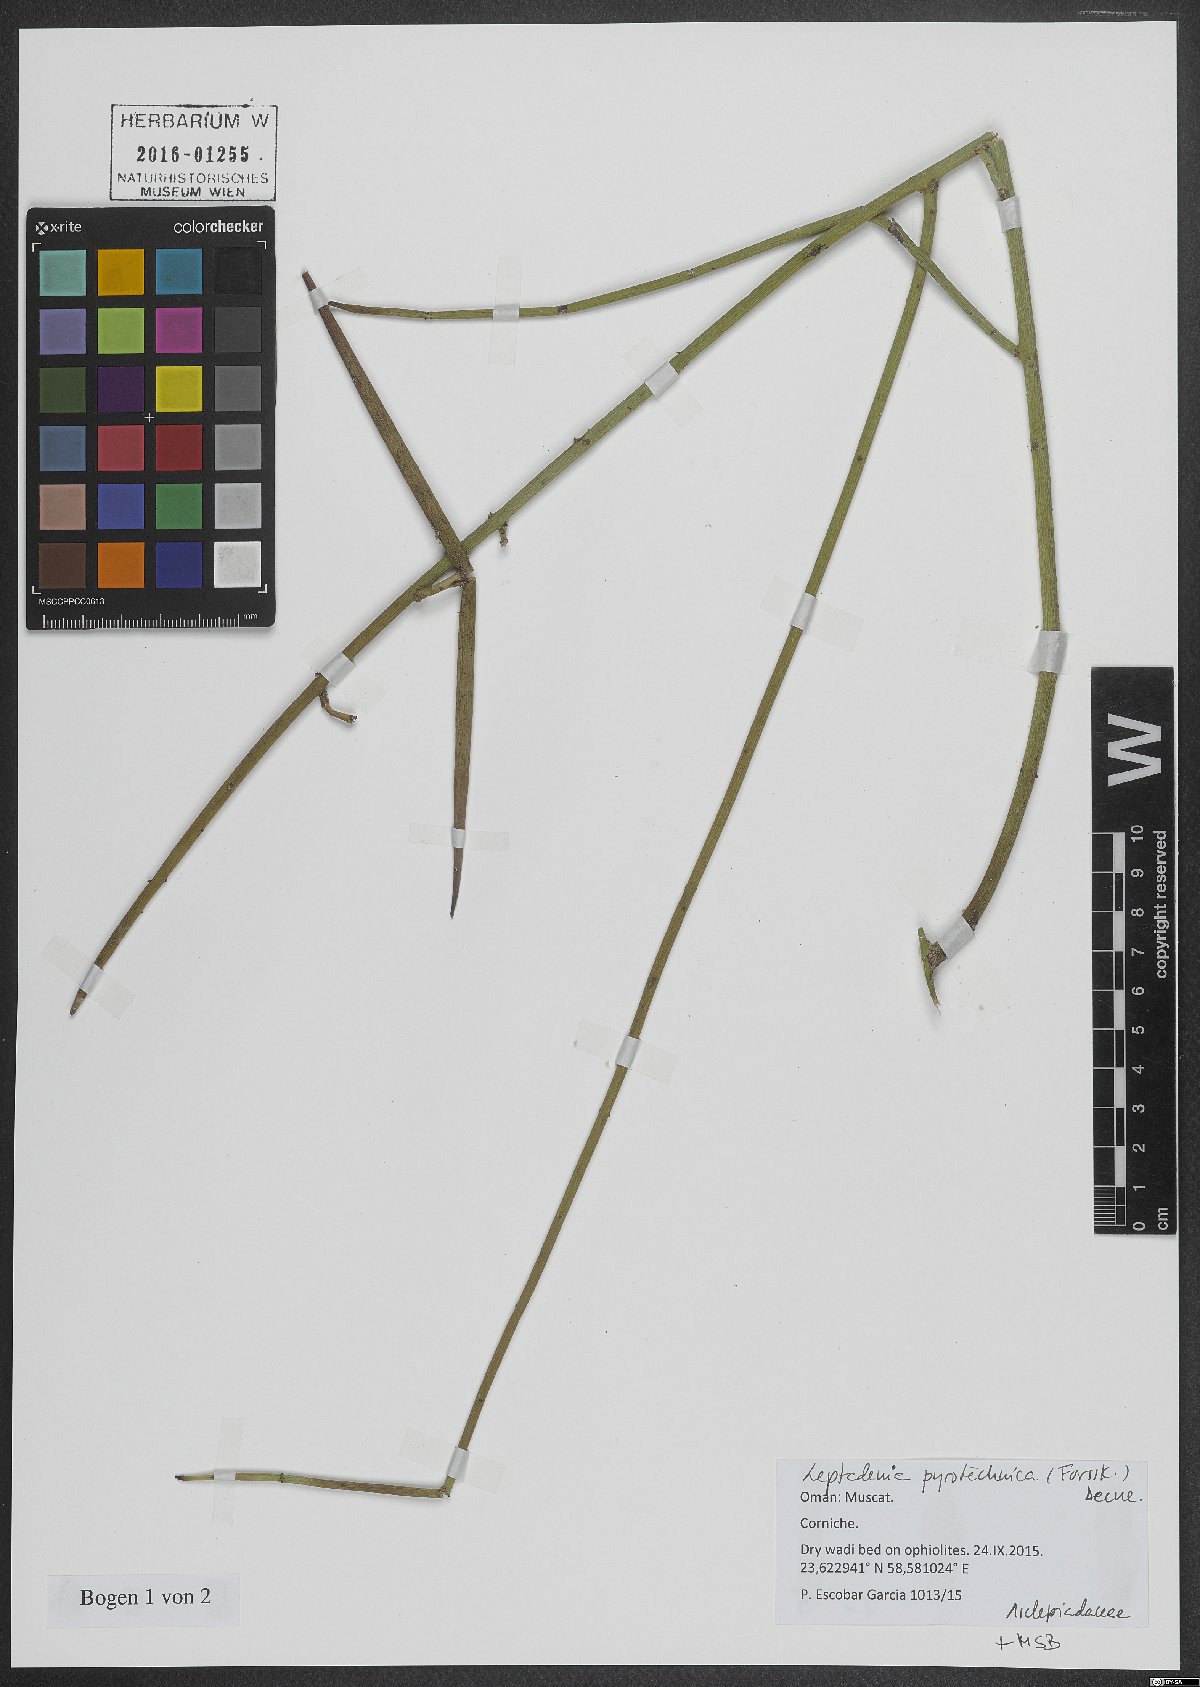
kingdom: Plantae
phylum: Tracheophyta
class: Magnoliopsida
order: Gentianales
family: Apocynaceae
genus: Leptadenia
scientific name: Leptadenia pyrotechnica
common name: Broom brush
